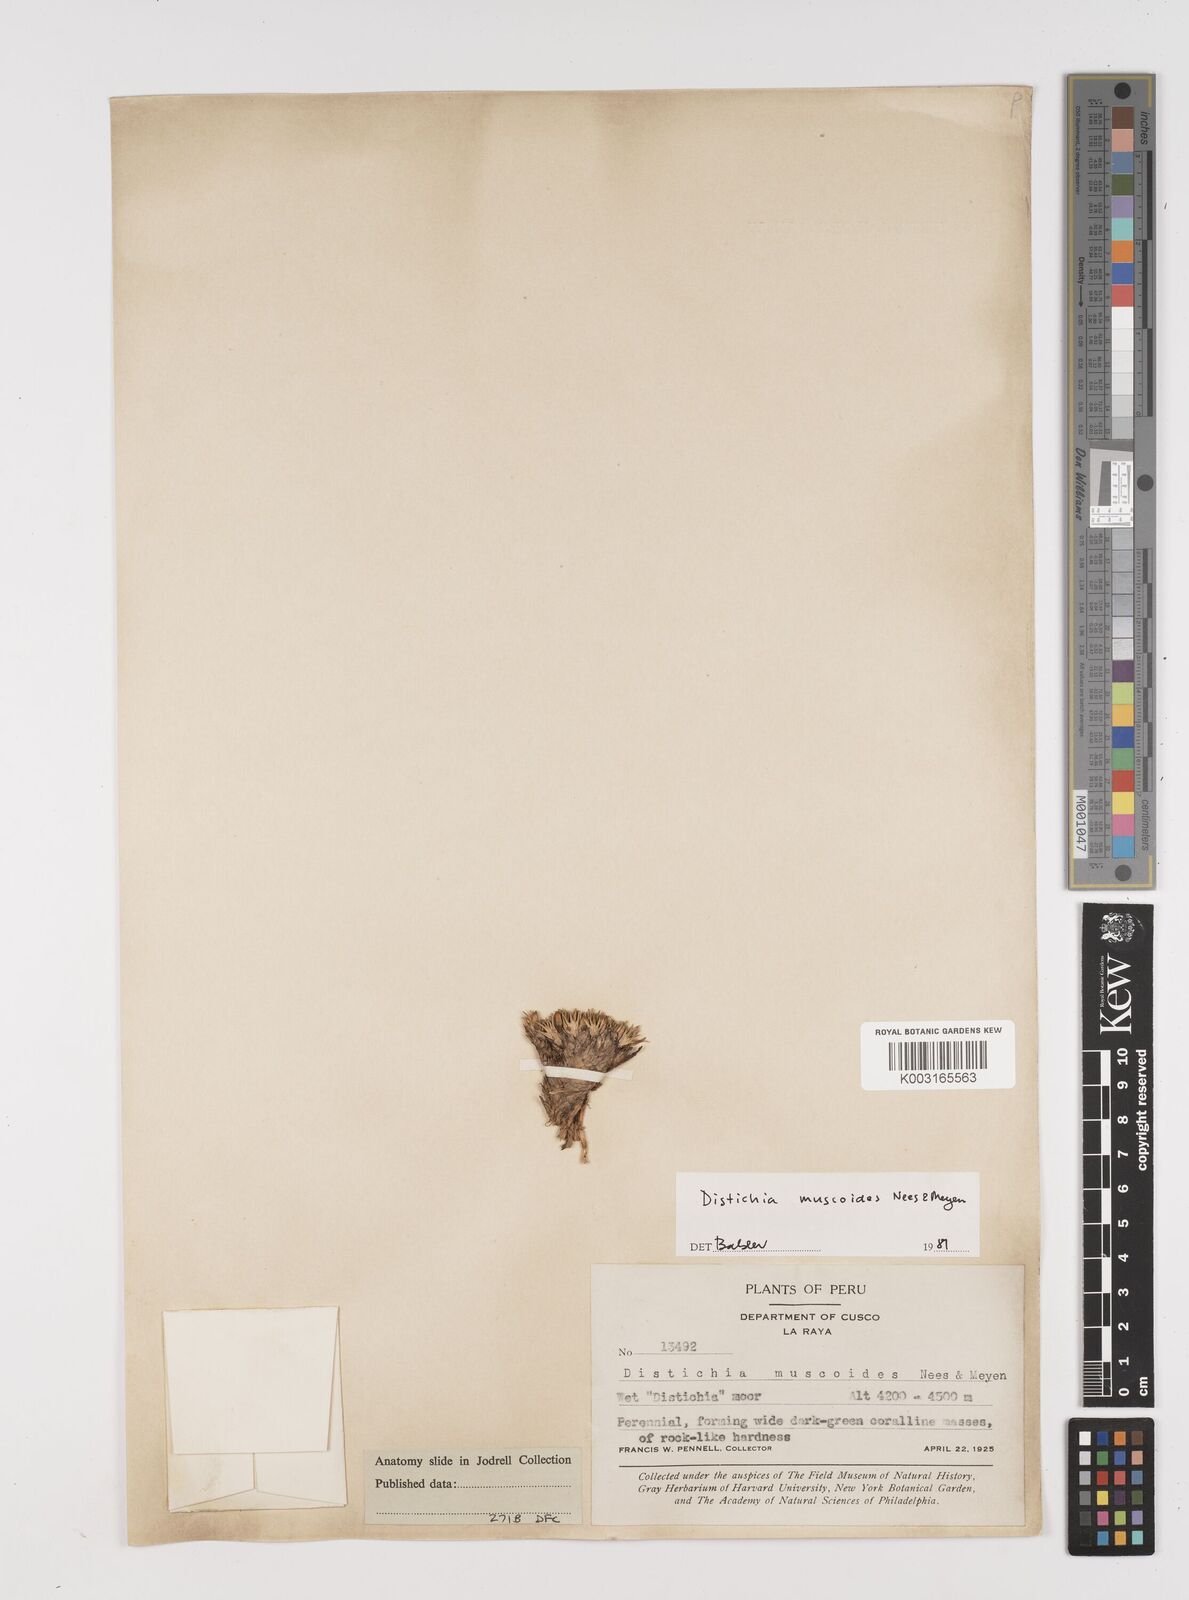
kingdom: Plantae
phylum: Tracheophyta
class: Liliopsida
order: Poales
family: Juncaceae
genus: Distichia
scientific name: Distichia muscoides
